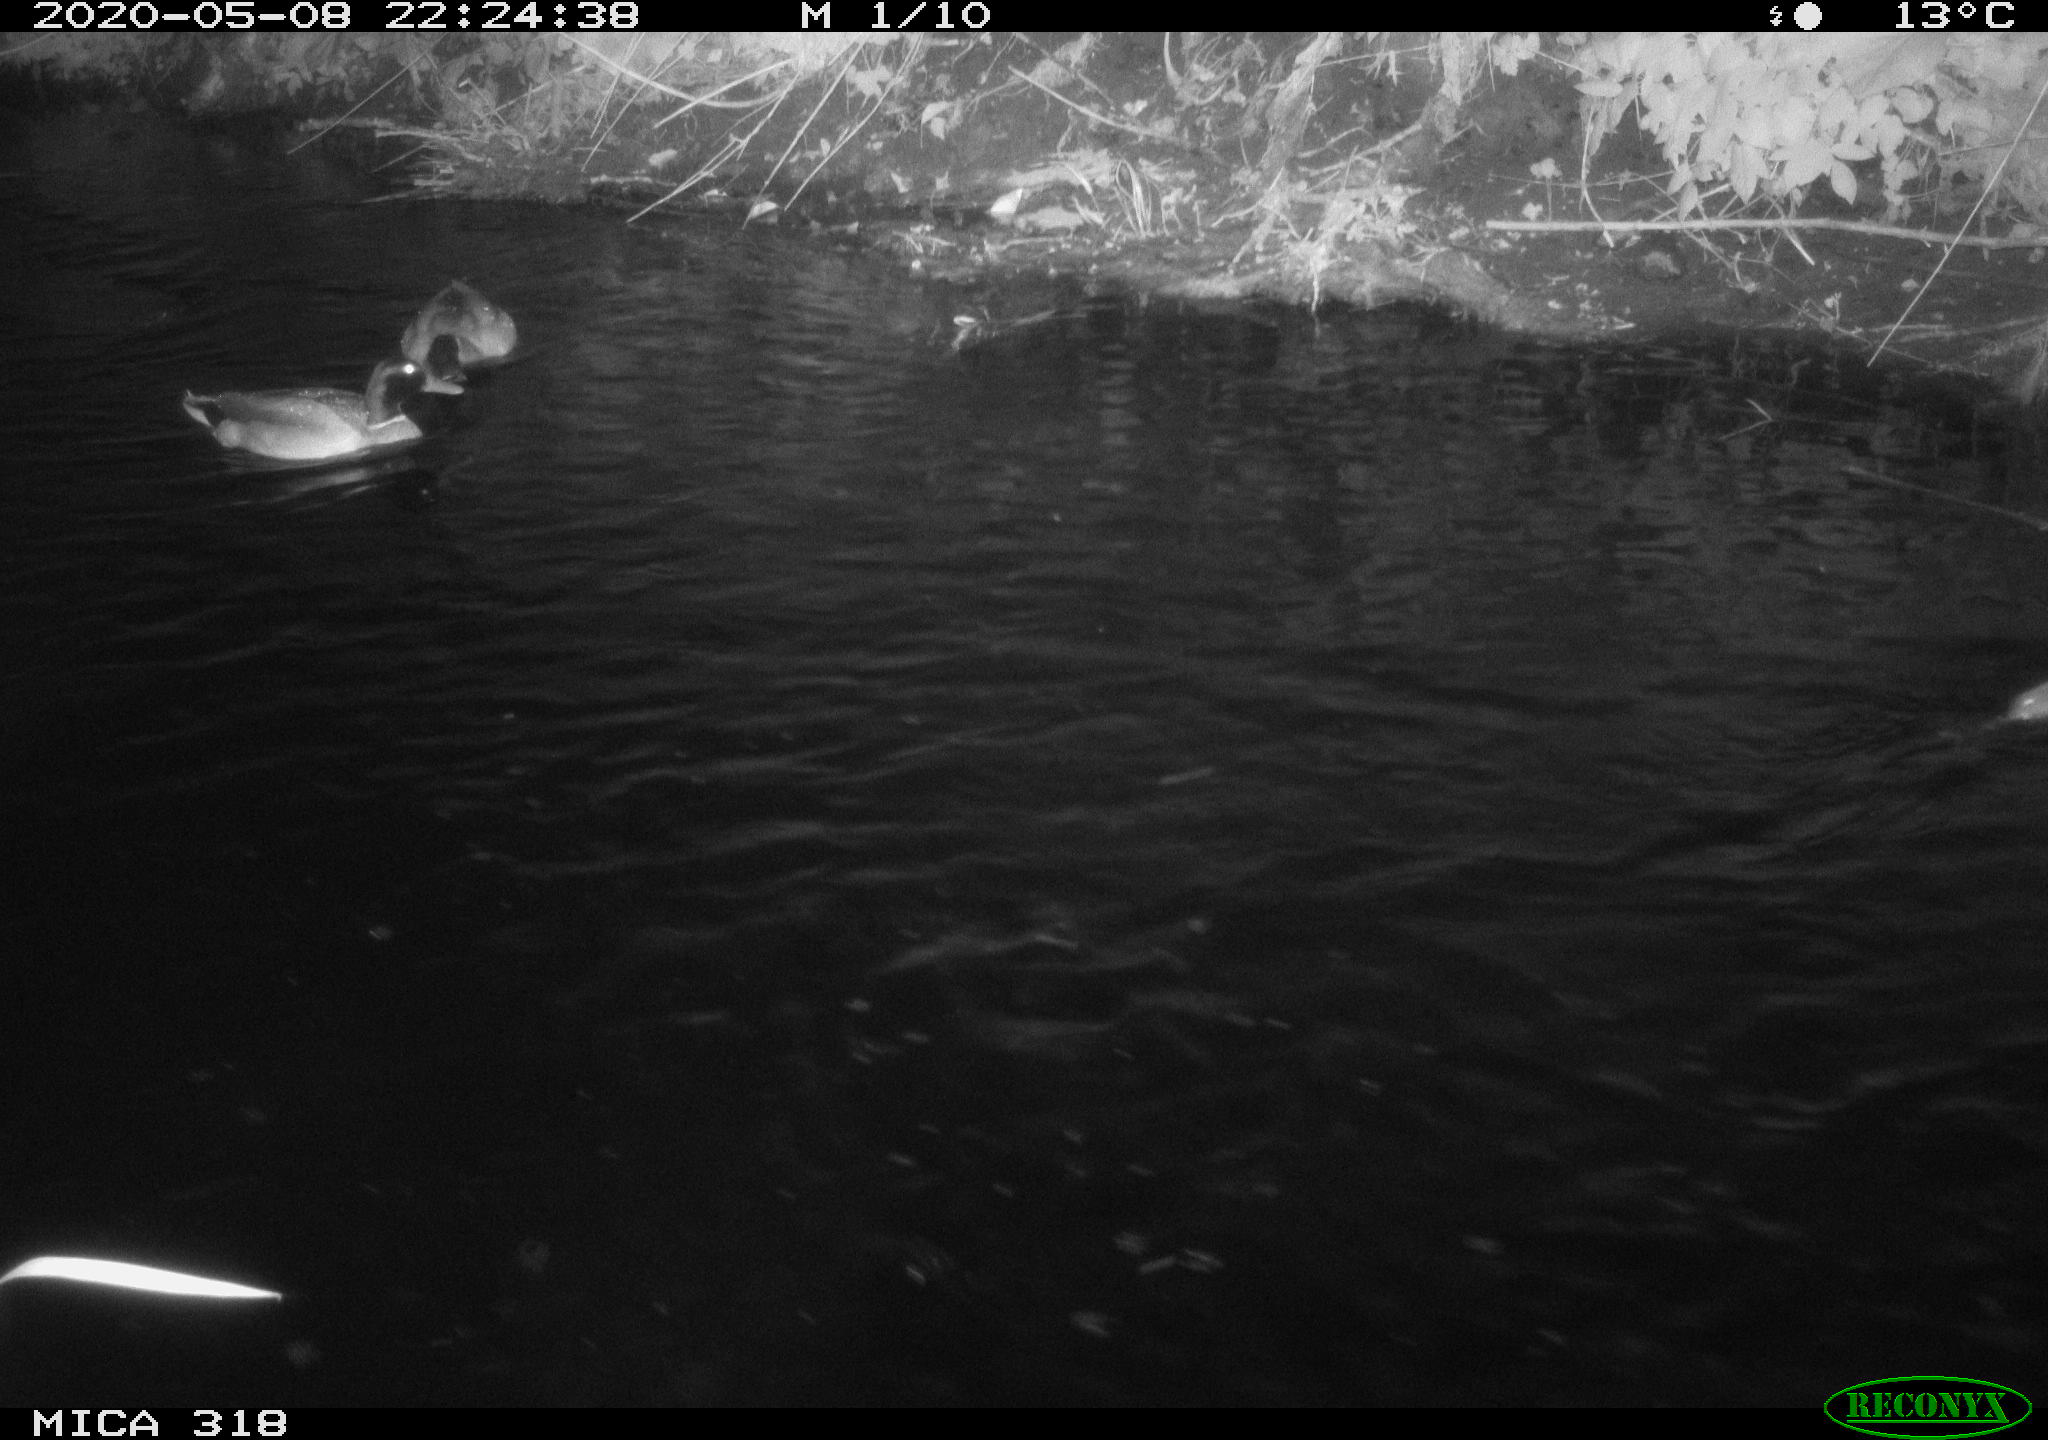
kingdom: Animalia
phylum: Chordata
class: Aves
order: Anseriformes
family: Anatidae
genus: Anas
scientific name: Anas platyrhynchos
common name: Mallard
